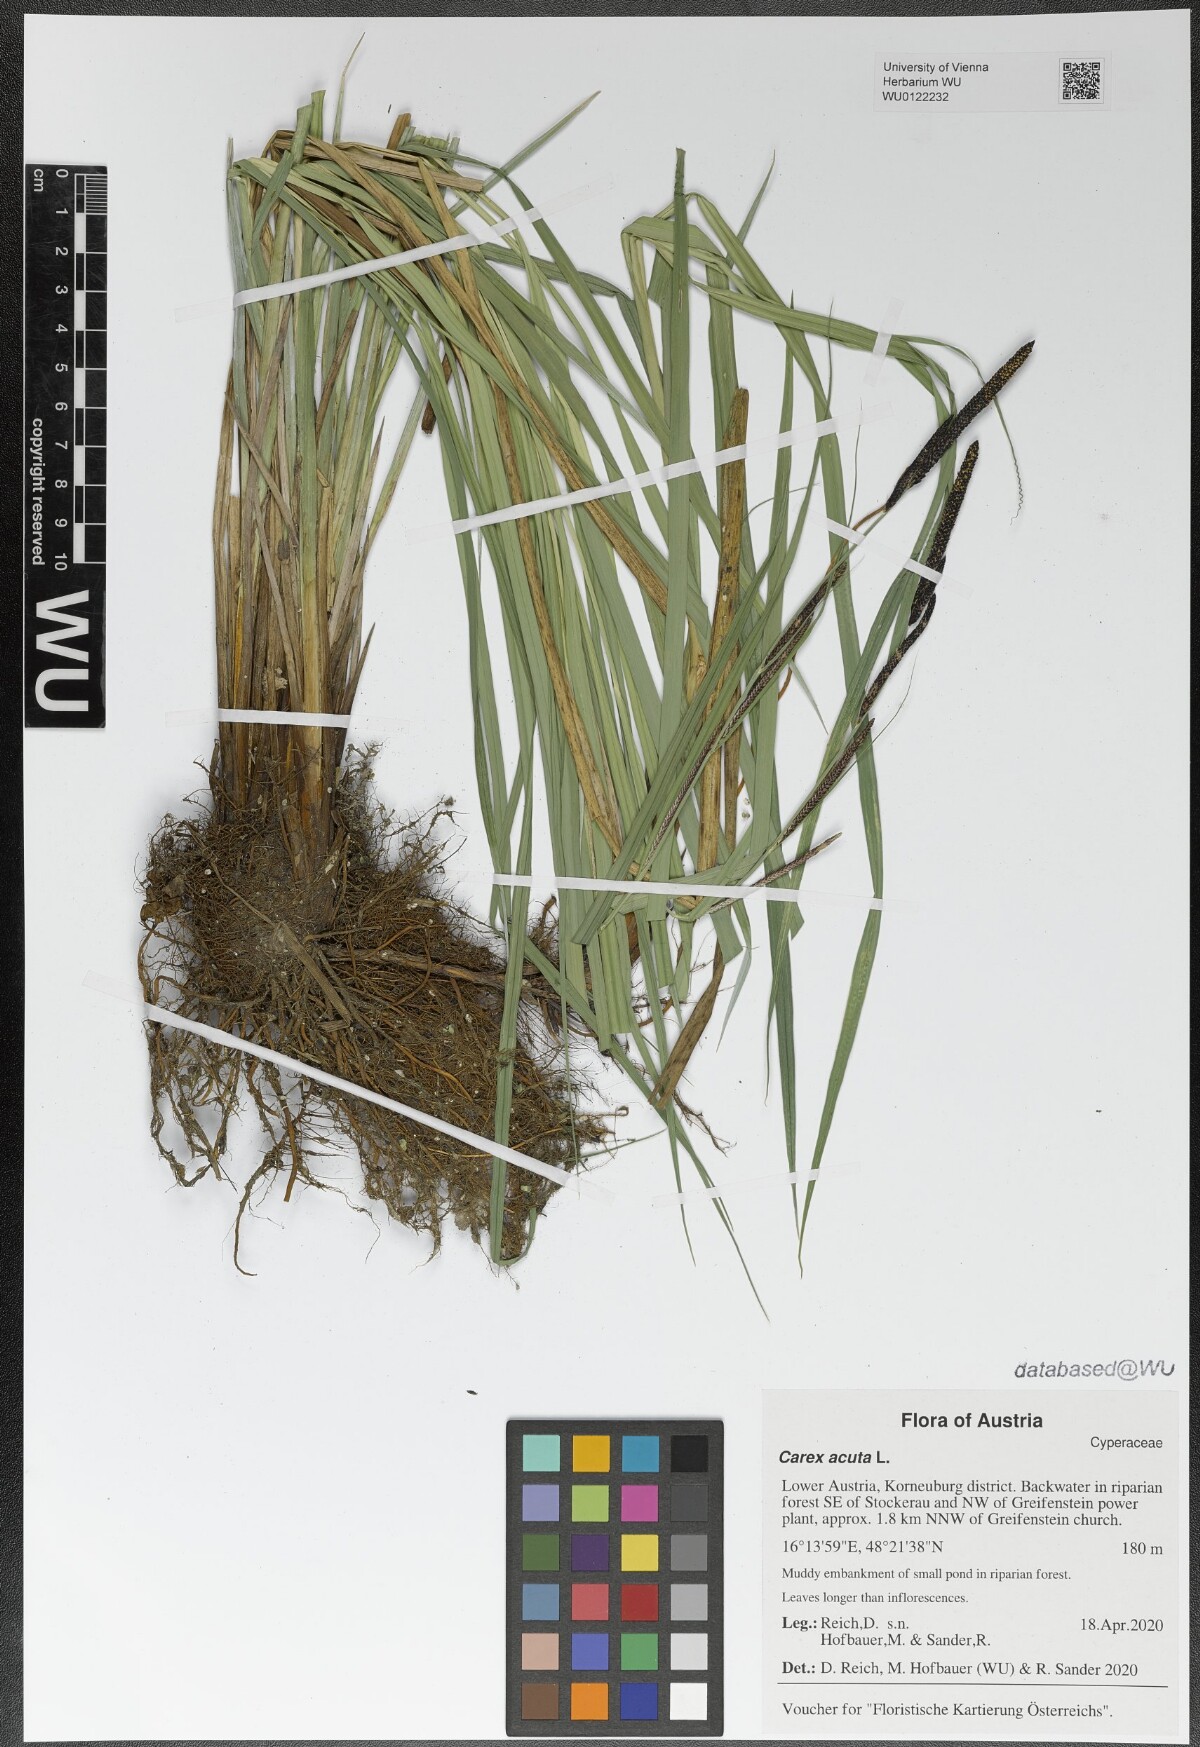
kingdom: Plantae
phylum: Tracheophyta
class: Liliopsida
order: Poales
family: Cyperaceae
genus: Carex
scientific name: Carex acuta
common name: Slender tufted-sedge
